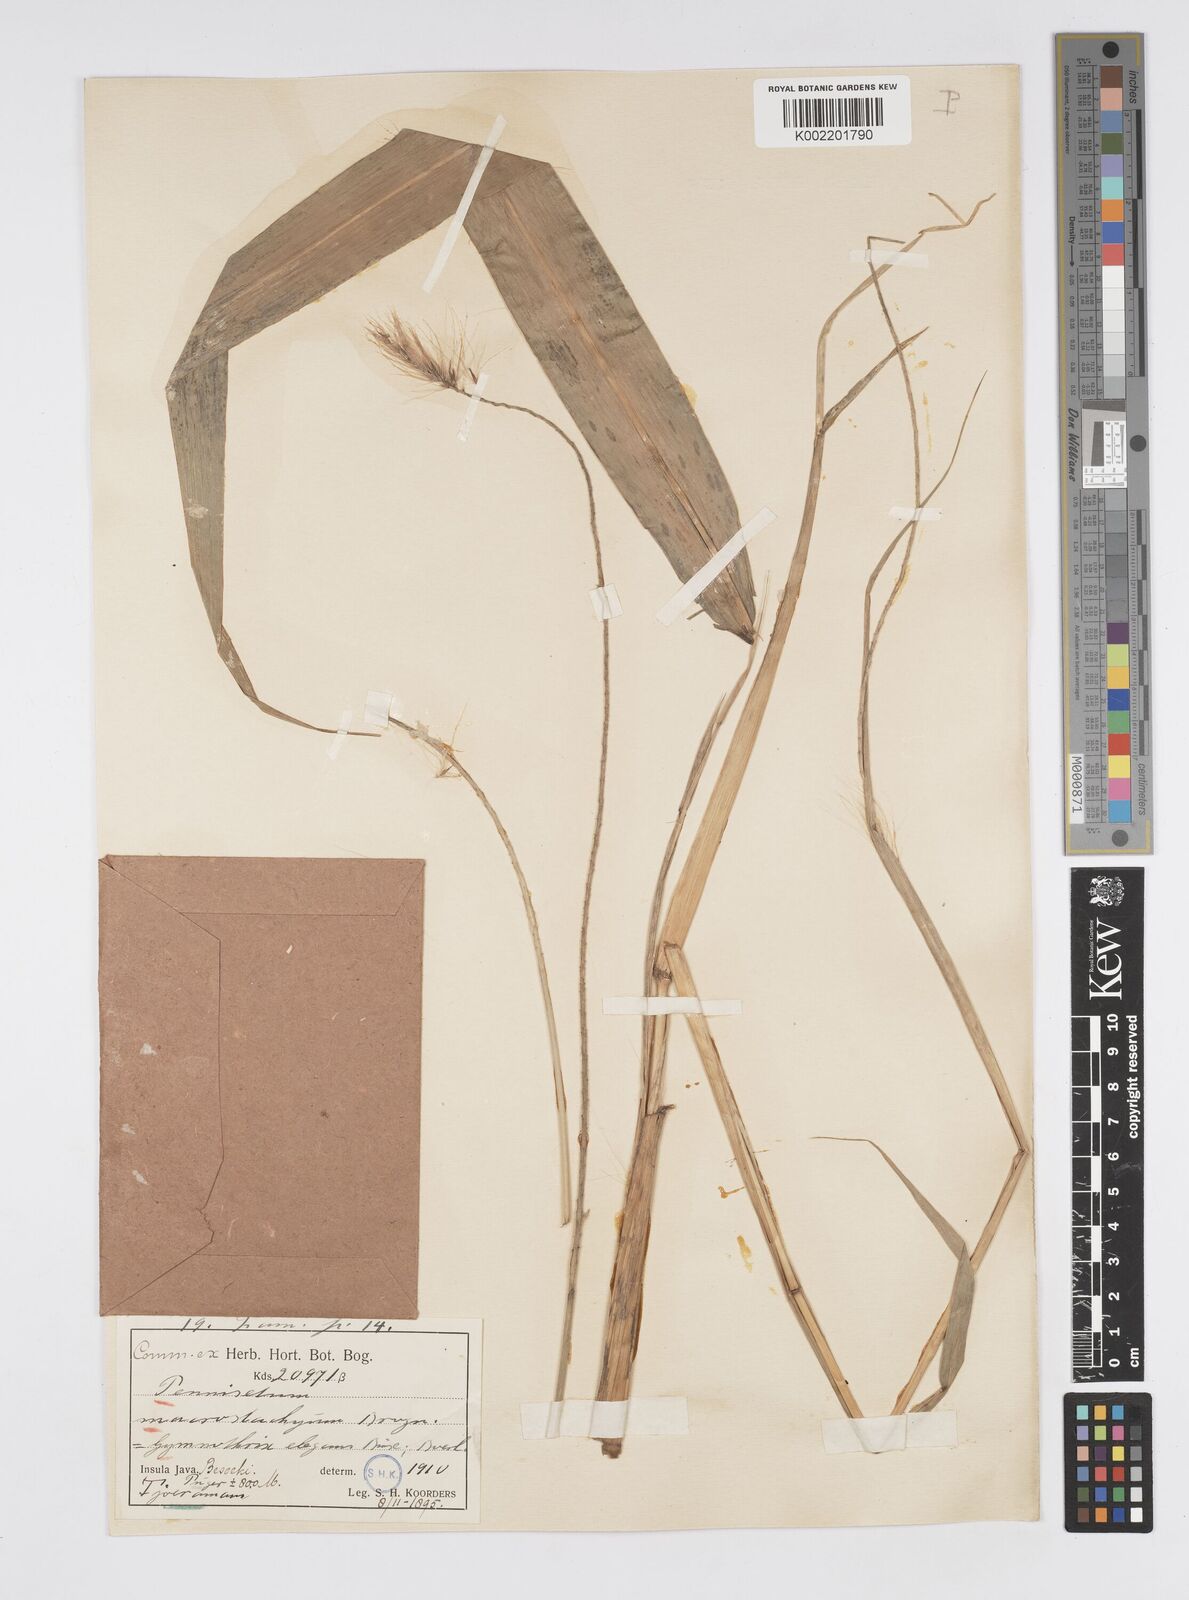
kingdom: Plantae
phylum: Tracheophyta
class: Liliopsida
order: Poales
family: Poaceae
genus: Cenchrus
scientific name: Cenchrus purpureus
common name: Elephant grass
